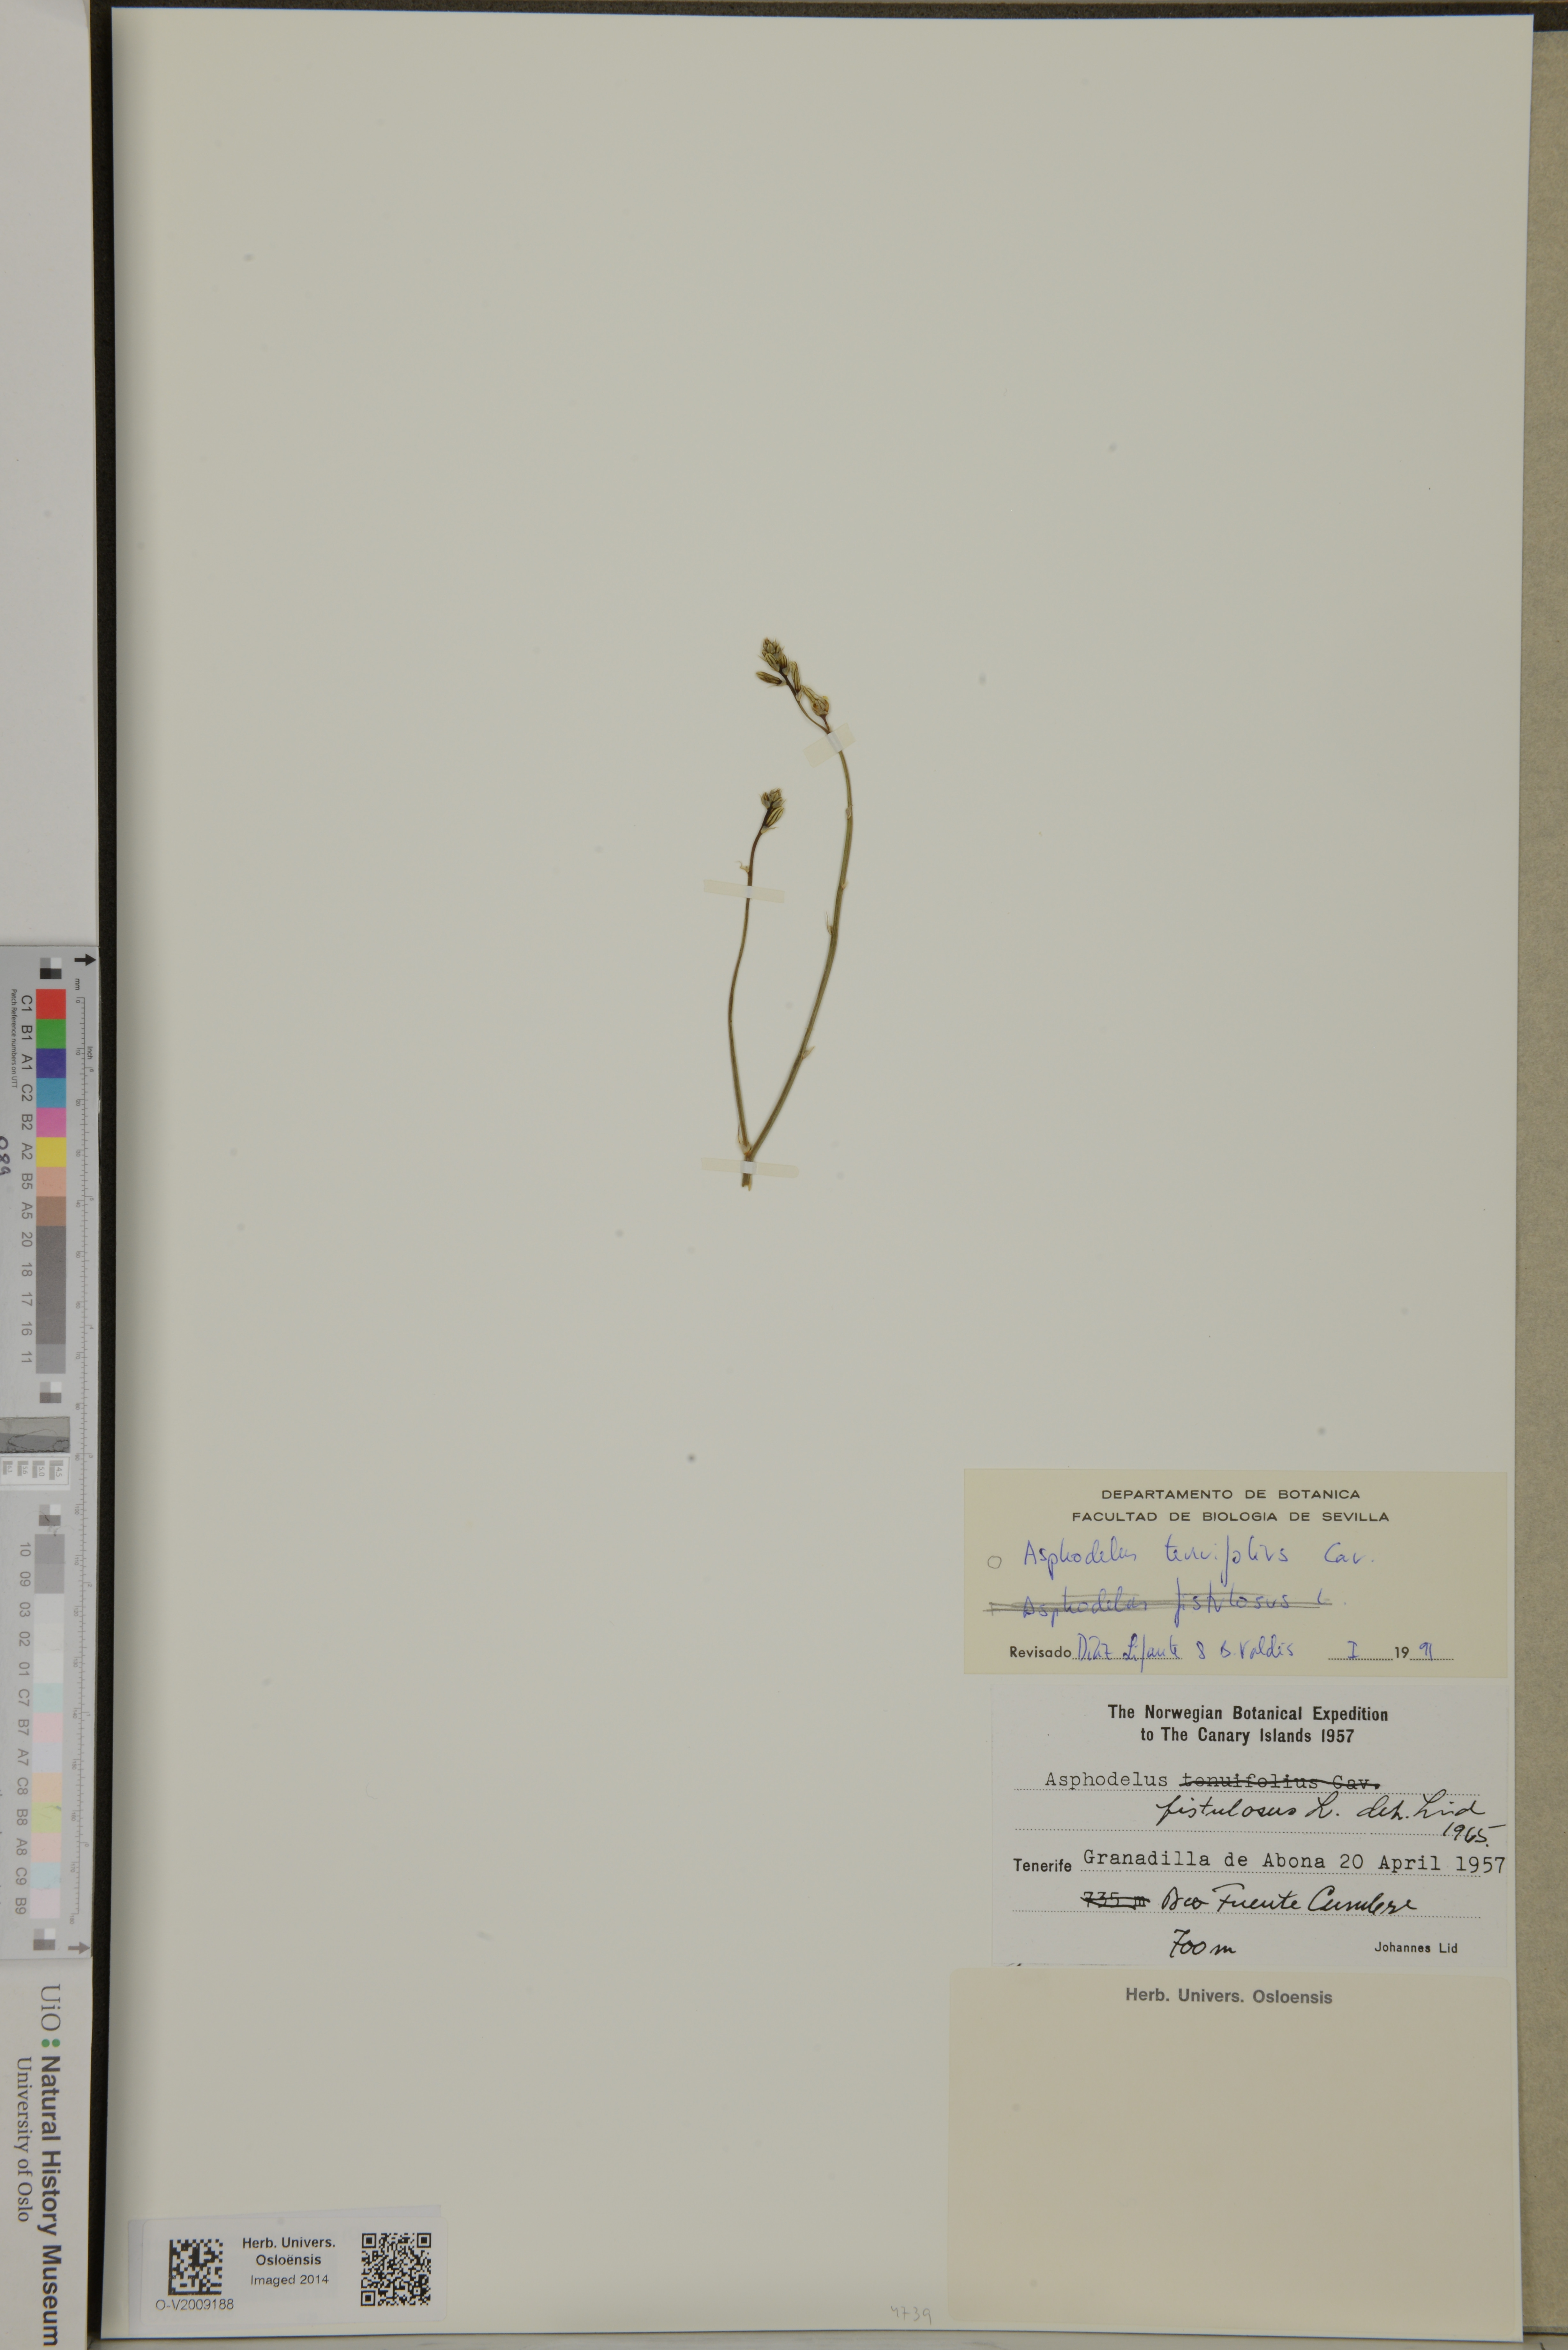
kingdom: Plantae
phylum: Tracheophyta
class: Liliopsida
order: Asparagales
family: Asphodelaceae
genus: Asphodelus
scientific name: Asphodelus tenuifolius
